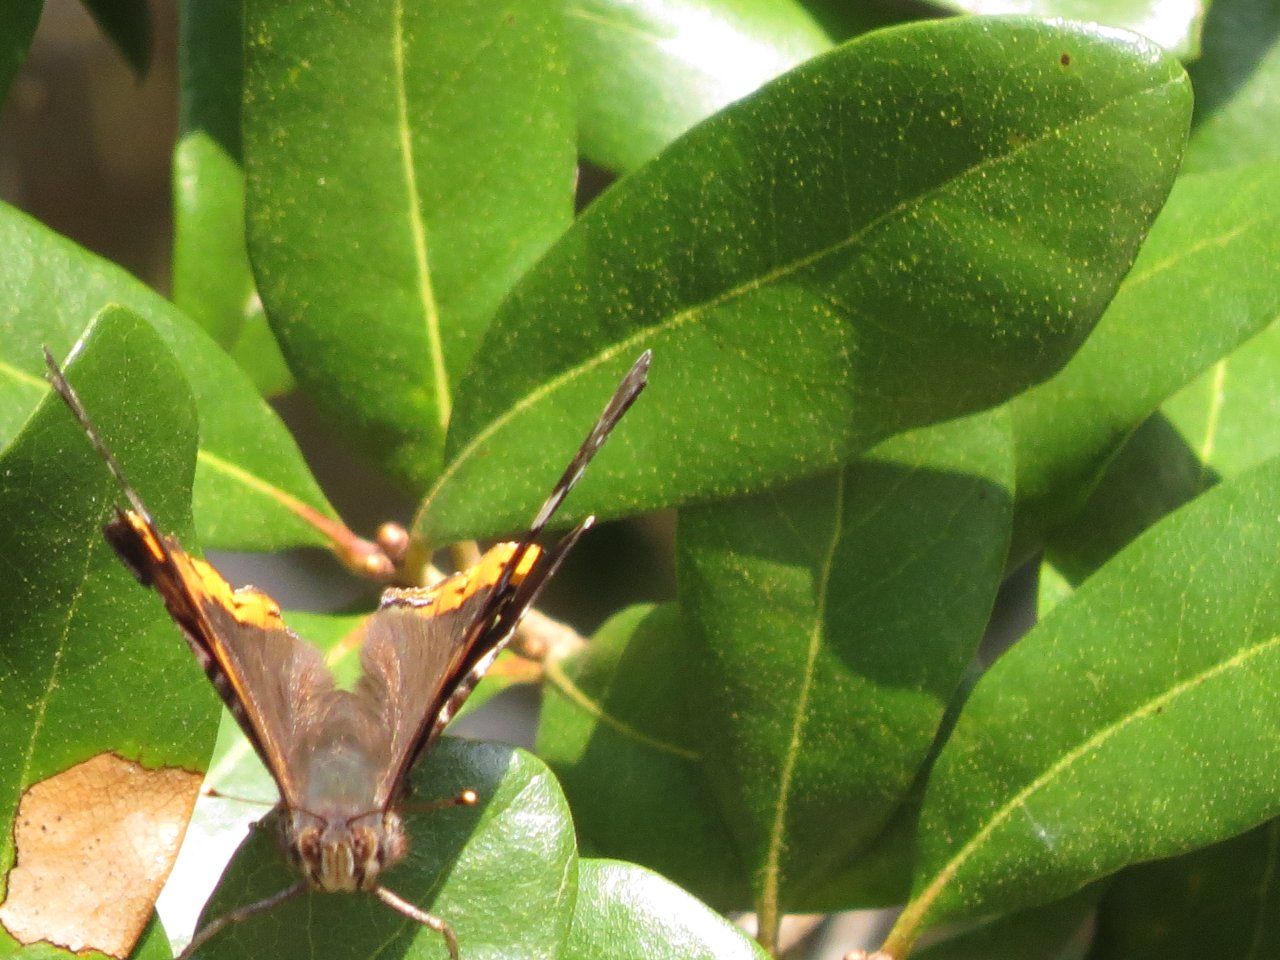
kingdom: Animalia
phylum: Arthropoda
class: Insecta
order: Lepidoptera
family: Nymphalidae
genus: Vanessa
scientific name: Vanessa atalanta
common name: Red Admiral
